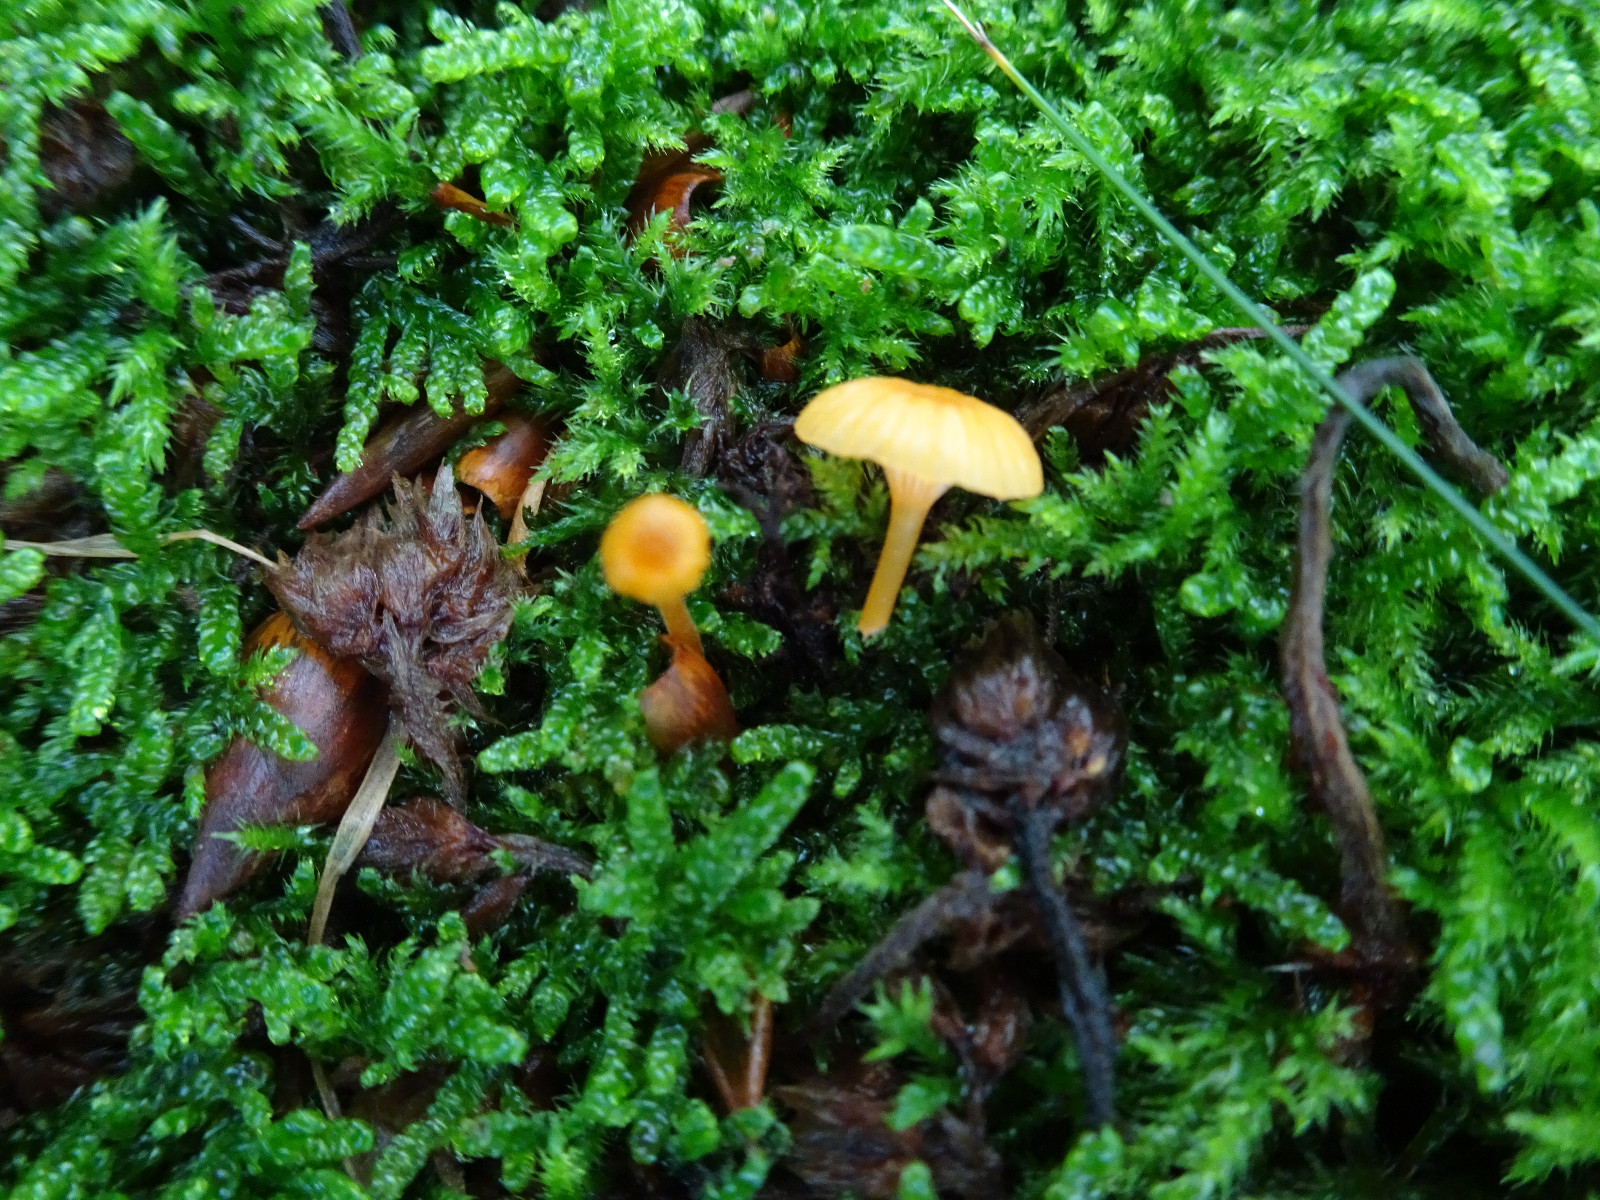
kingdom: Fungi
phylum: Basidiomycota
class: Agaricomycetes
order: Hymenochaetales
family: Rickenellaceae
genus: Rickenella
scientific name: Rickenella fibula
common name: orange mosnavlehat
